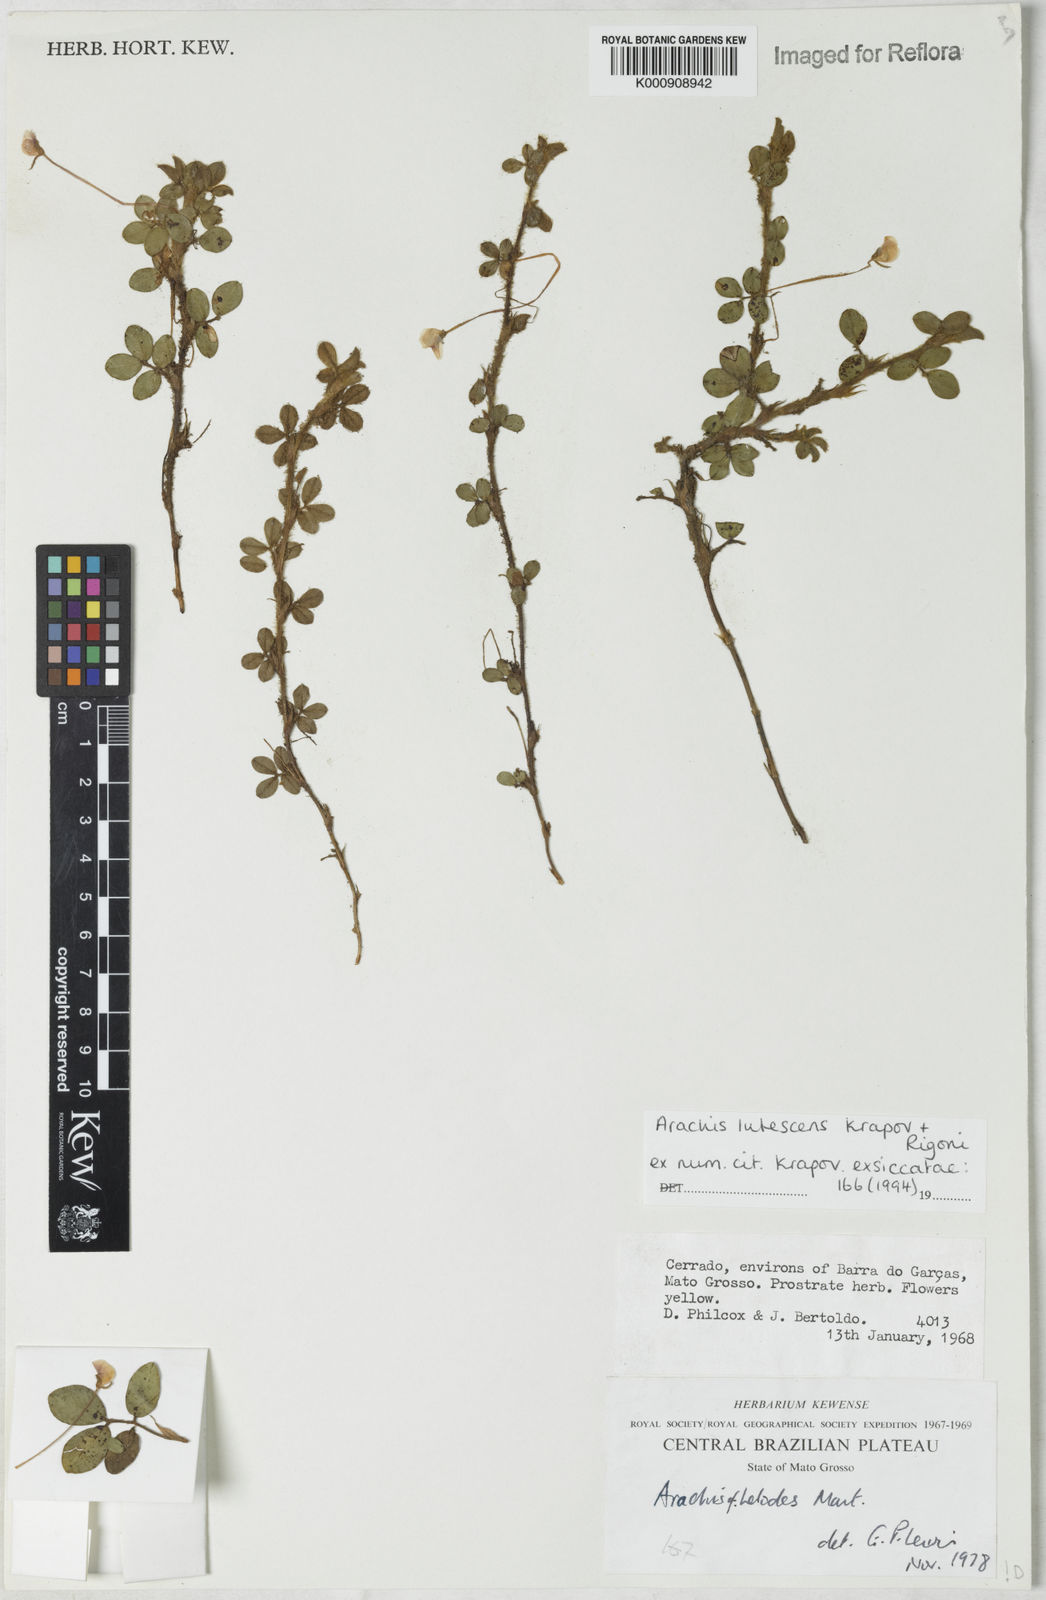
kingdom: Plantae
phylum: Tracheophyta
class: Magnoliopsida
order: Fabales
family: Fabaceae
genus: Arachis
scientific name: Arachis lutescens
